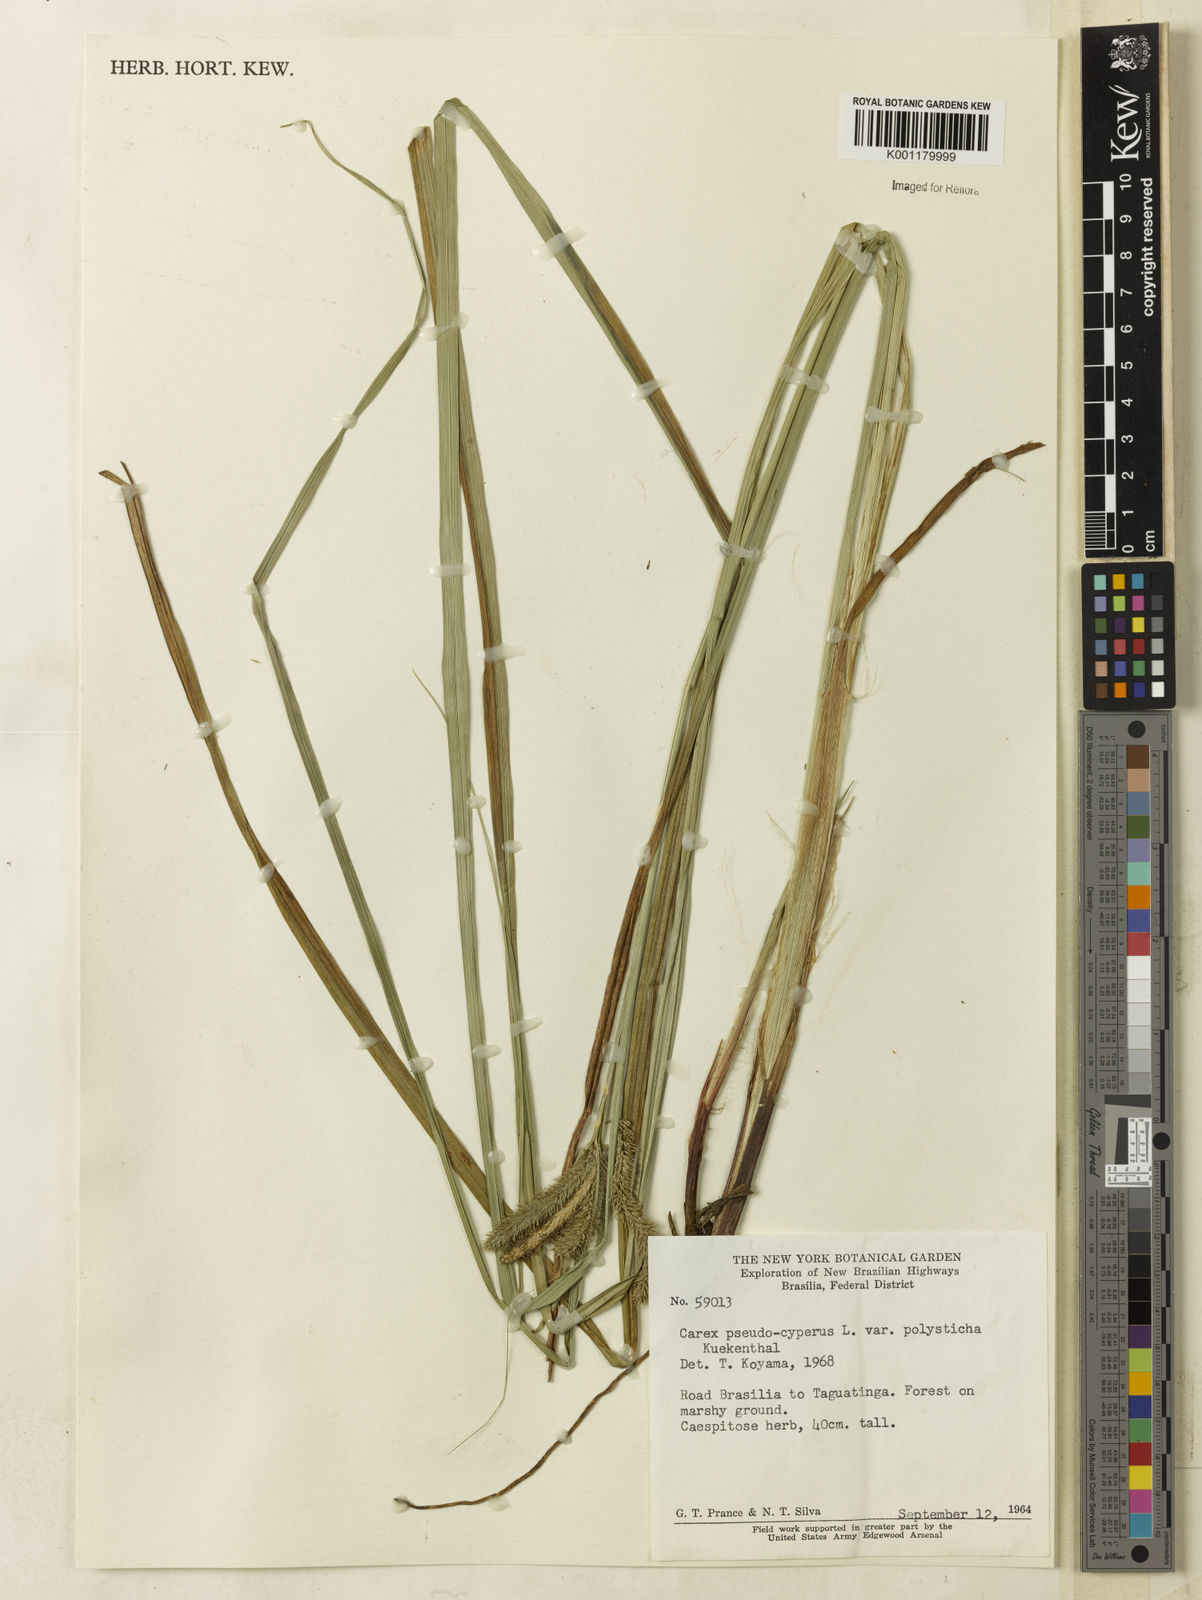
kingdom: Plantae
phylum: Tracheophyta
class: Liliopsida
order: Poales
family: Cyperaceae
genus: Carex
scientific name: Carex polysticha
